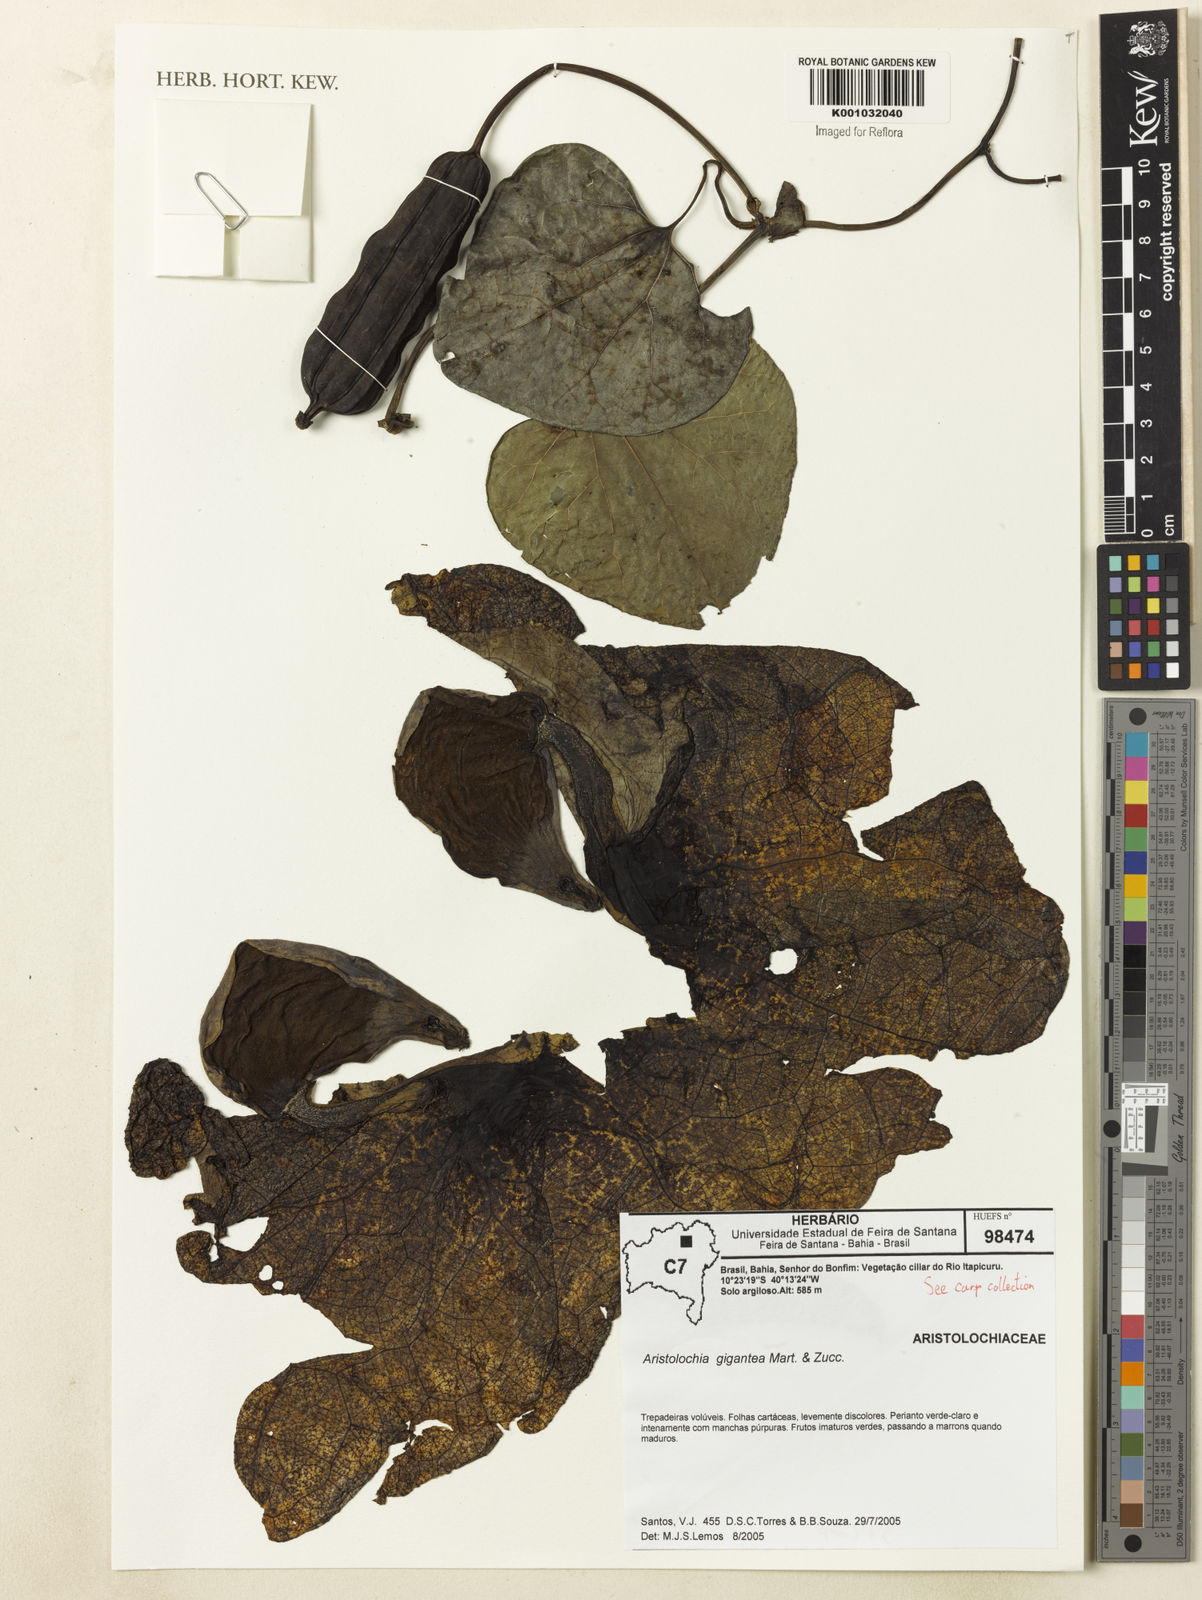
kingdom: Plantae
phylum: Tracheophyta
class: Magnoliopsida
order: Piperales
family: Aristolochiaceae
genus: Aristolochia
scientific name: Aristolochia gigantea
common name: Duckflower
